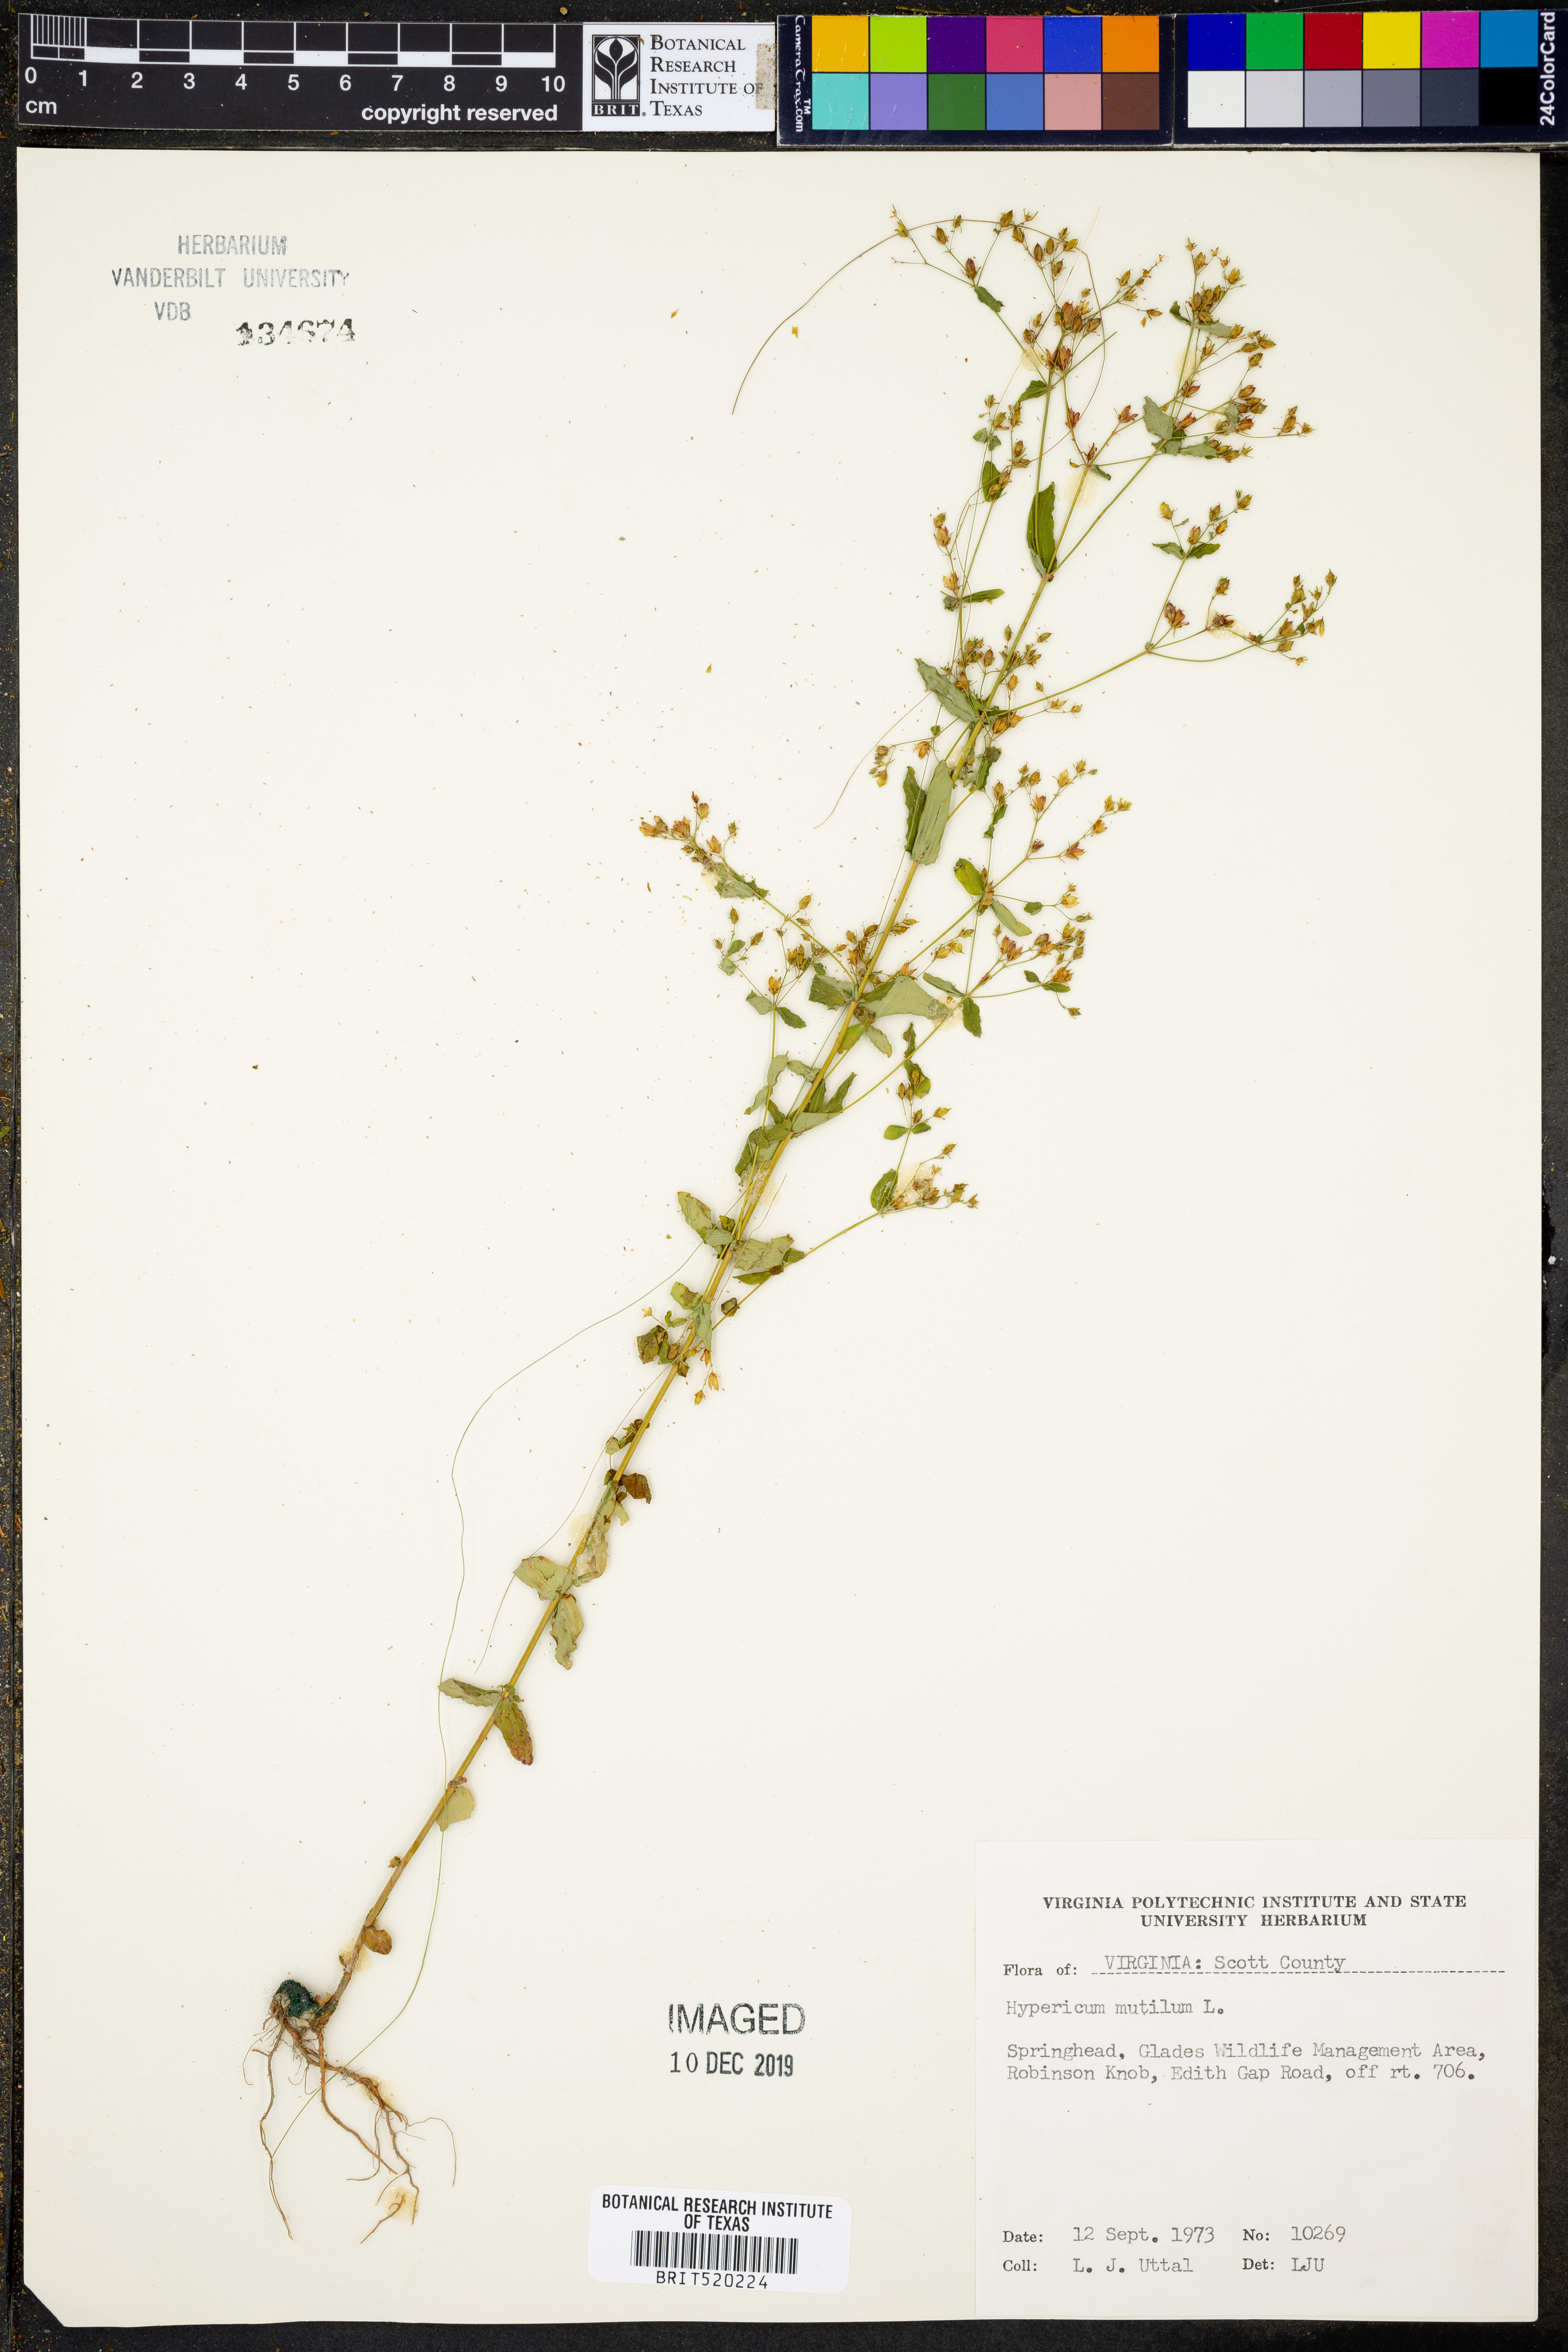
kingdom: Plantae
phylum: Tracheophyta
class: Magnoliopsida
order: Malpighiales
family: Hypericaceae
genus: Hypericum
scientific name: Hypericum mutilum
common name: Dwarf st. john's-wort
